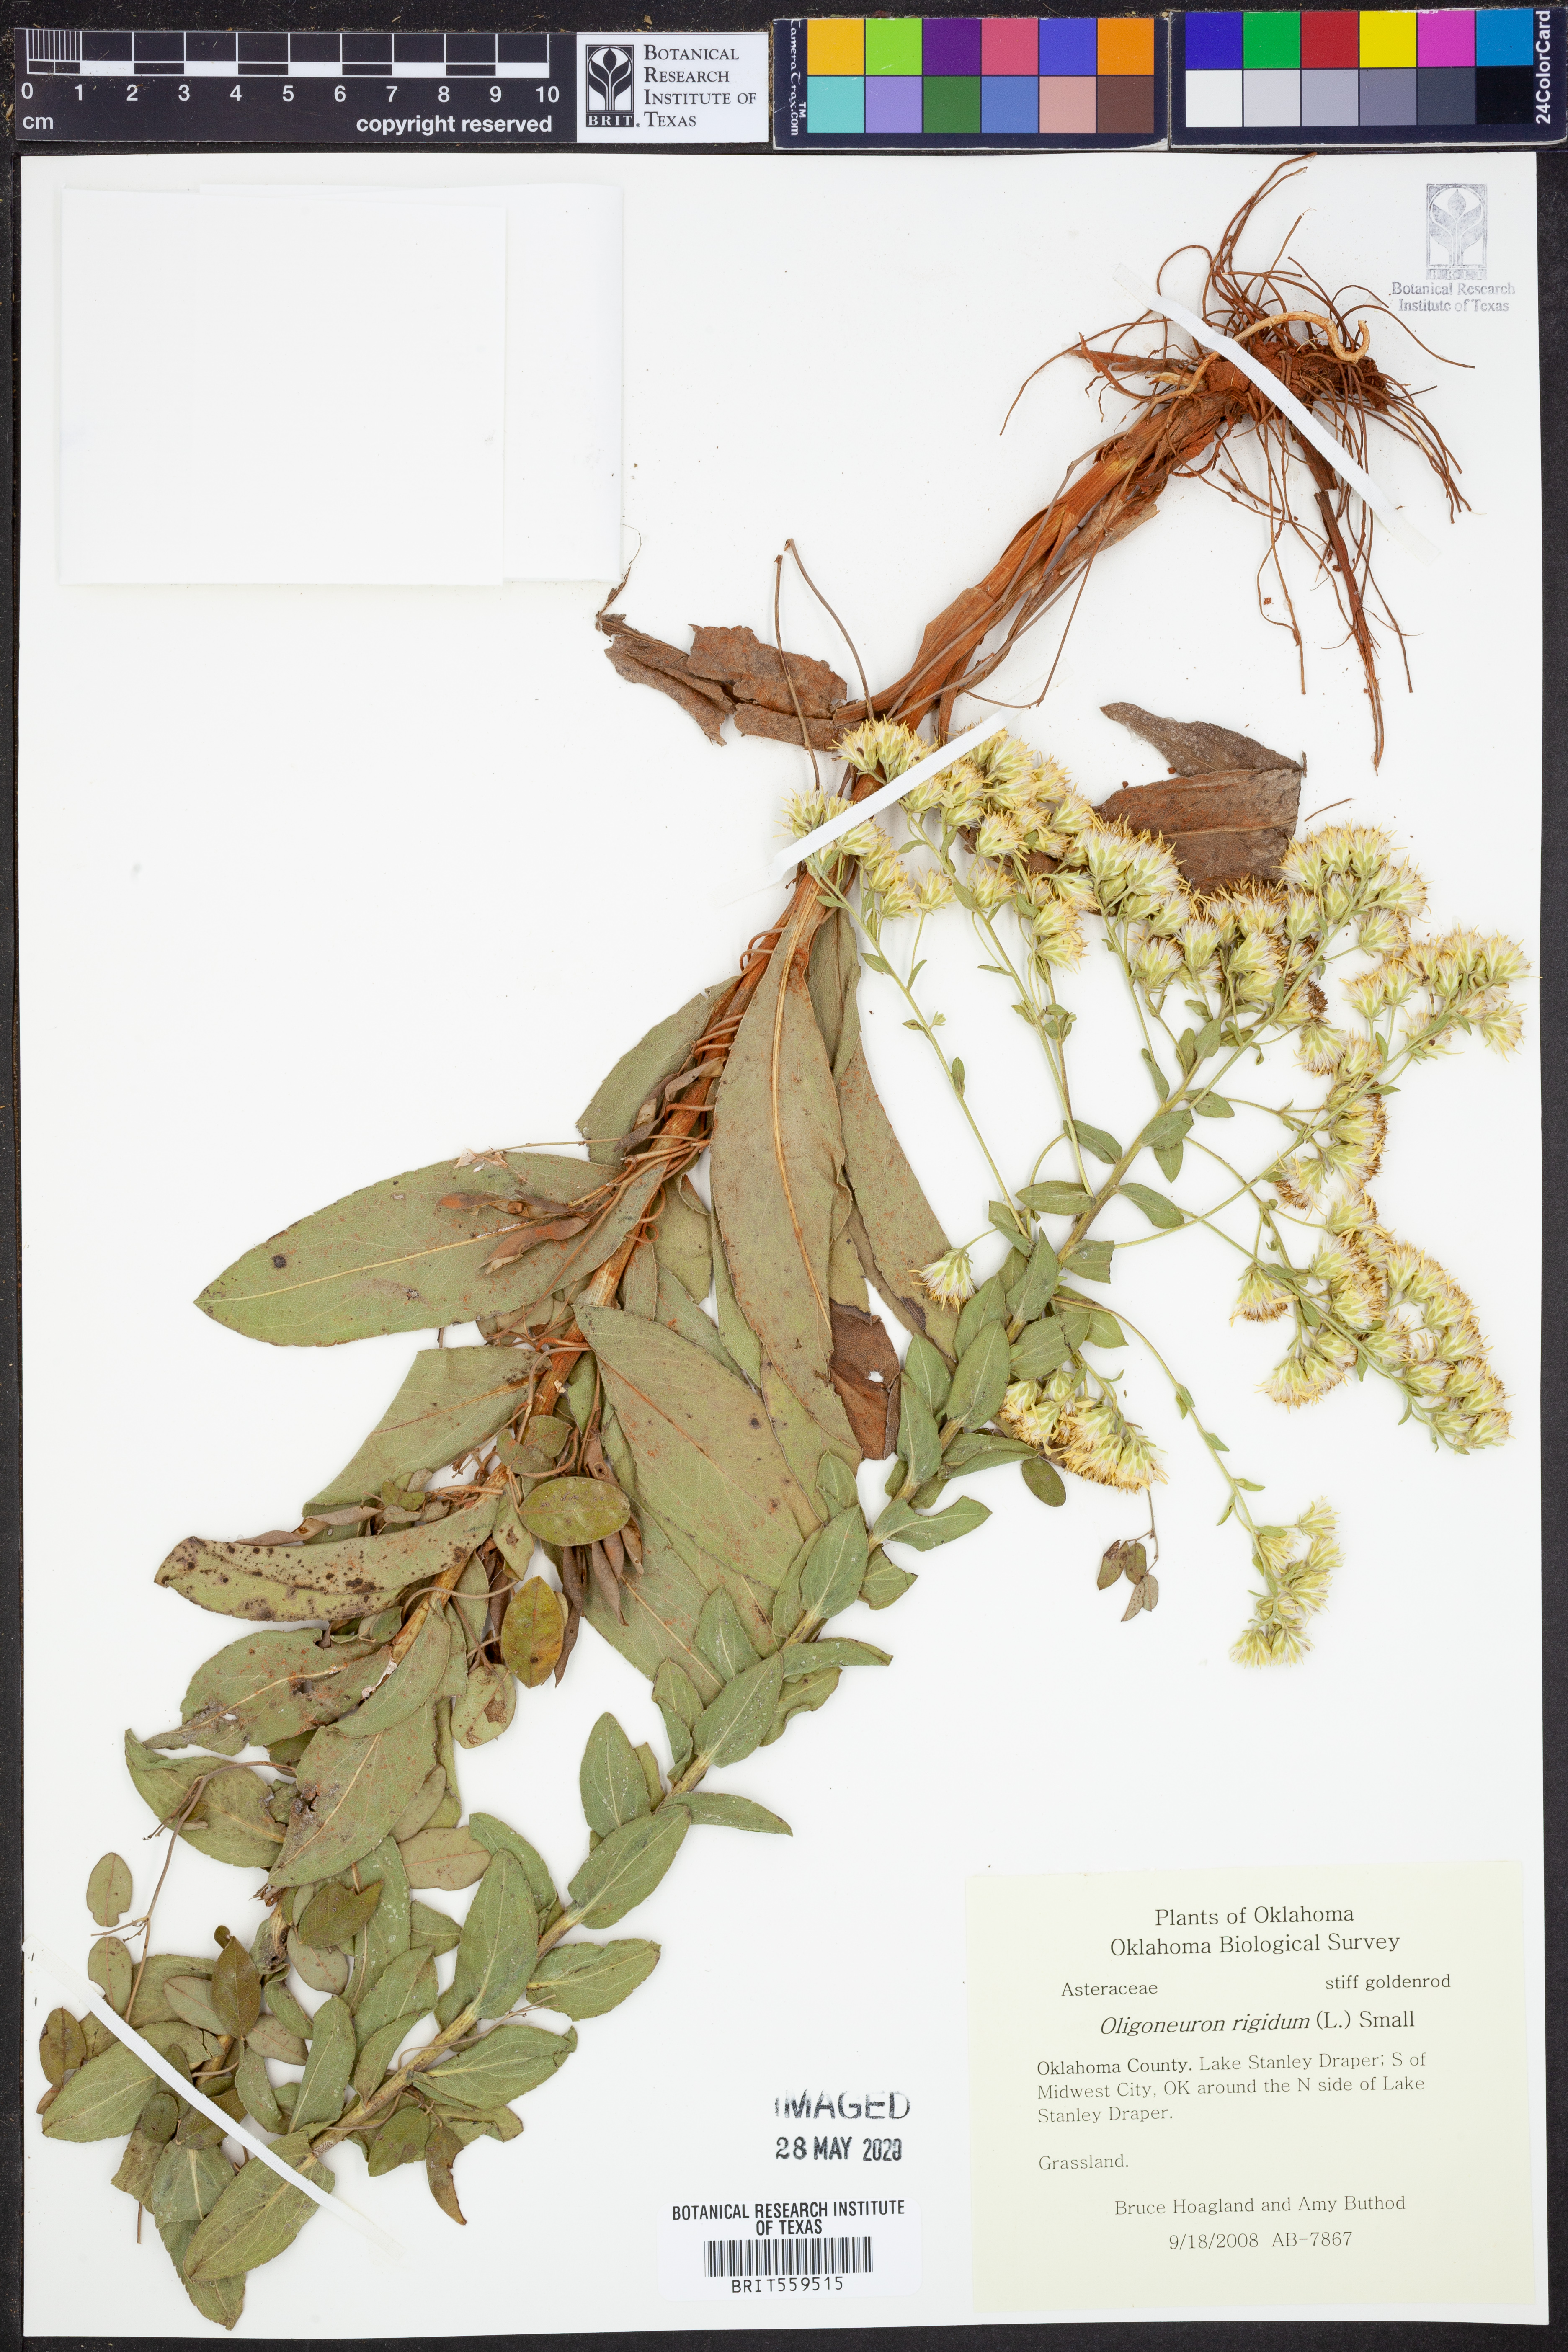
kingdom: Plantae
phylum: Tracheophyta
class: Magnoliopsida
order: Asterales
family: Asteraceae
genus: Solidago
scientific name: Solidago rigida
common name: Rigid goldenrod
